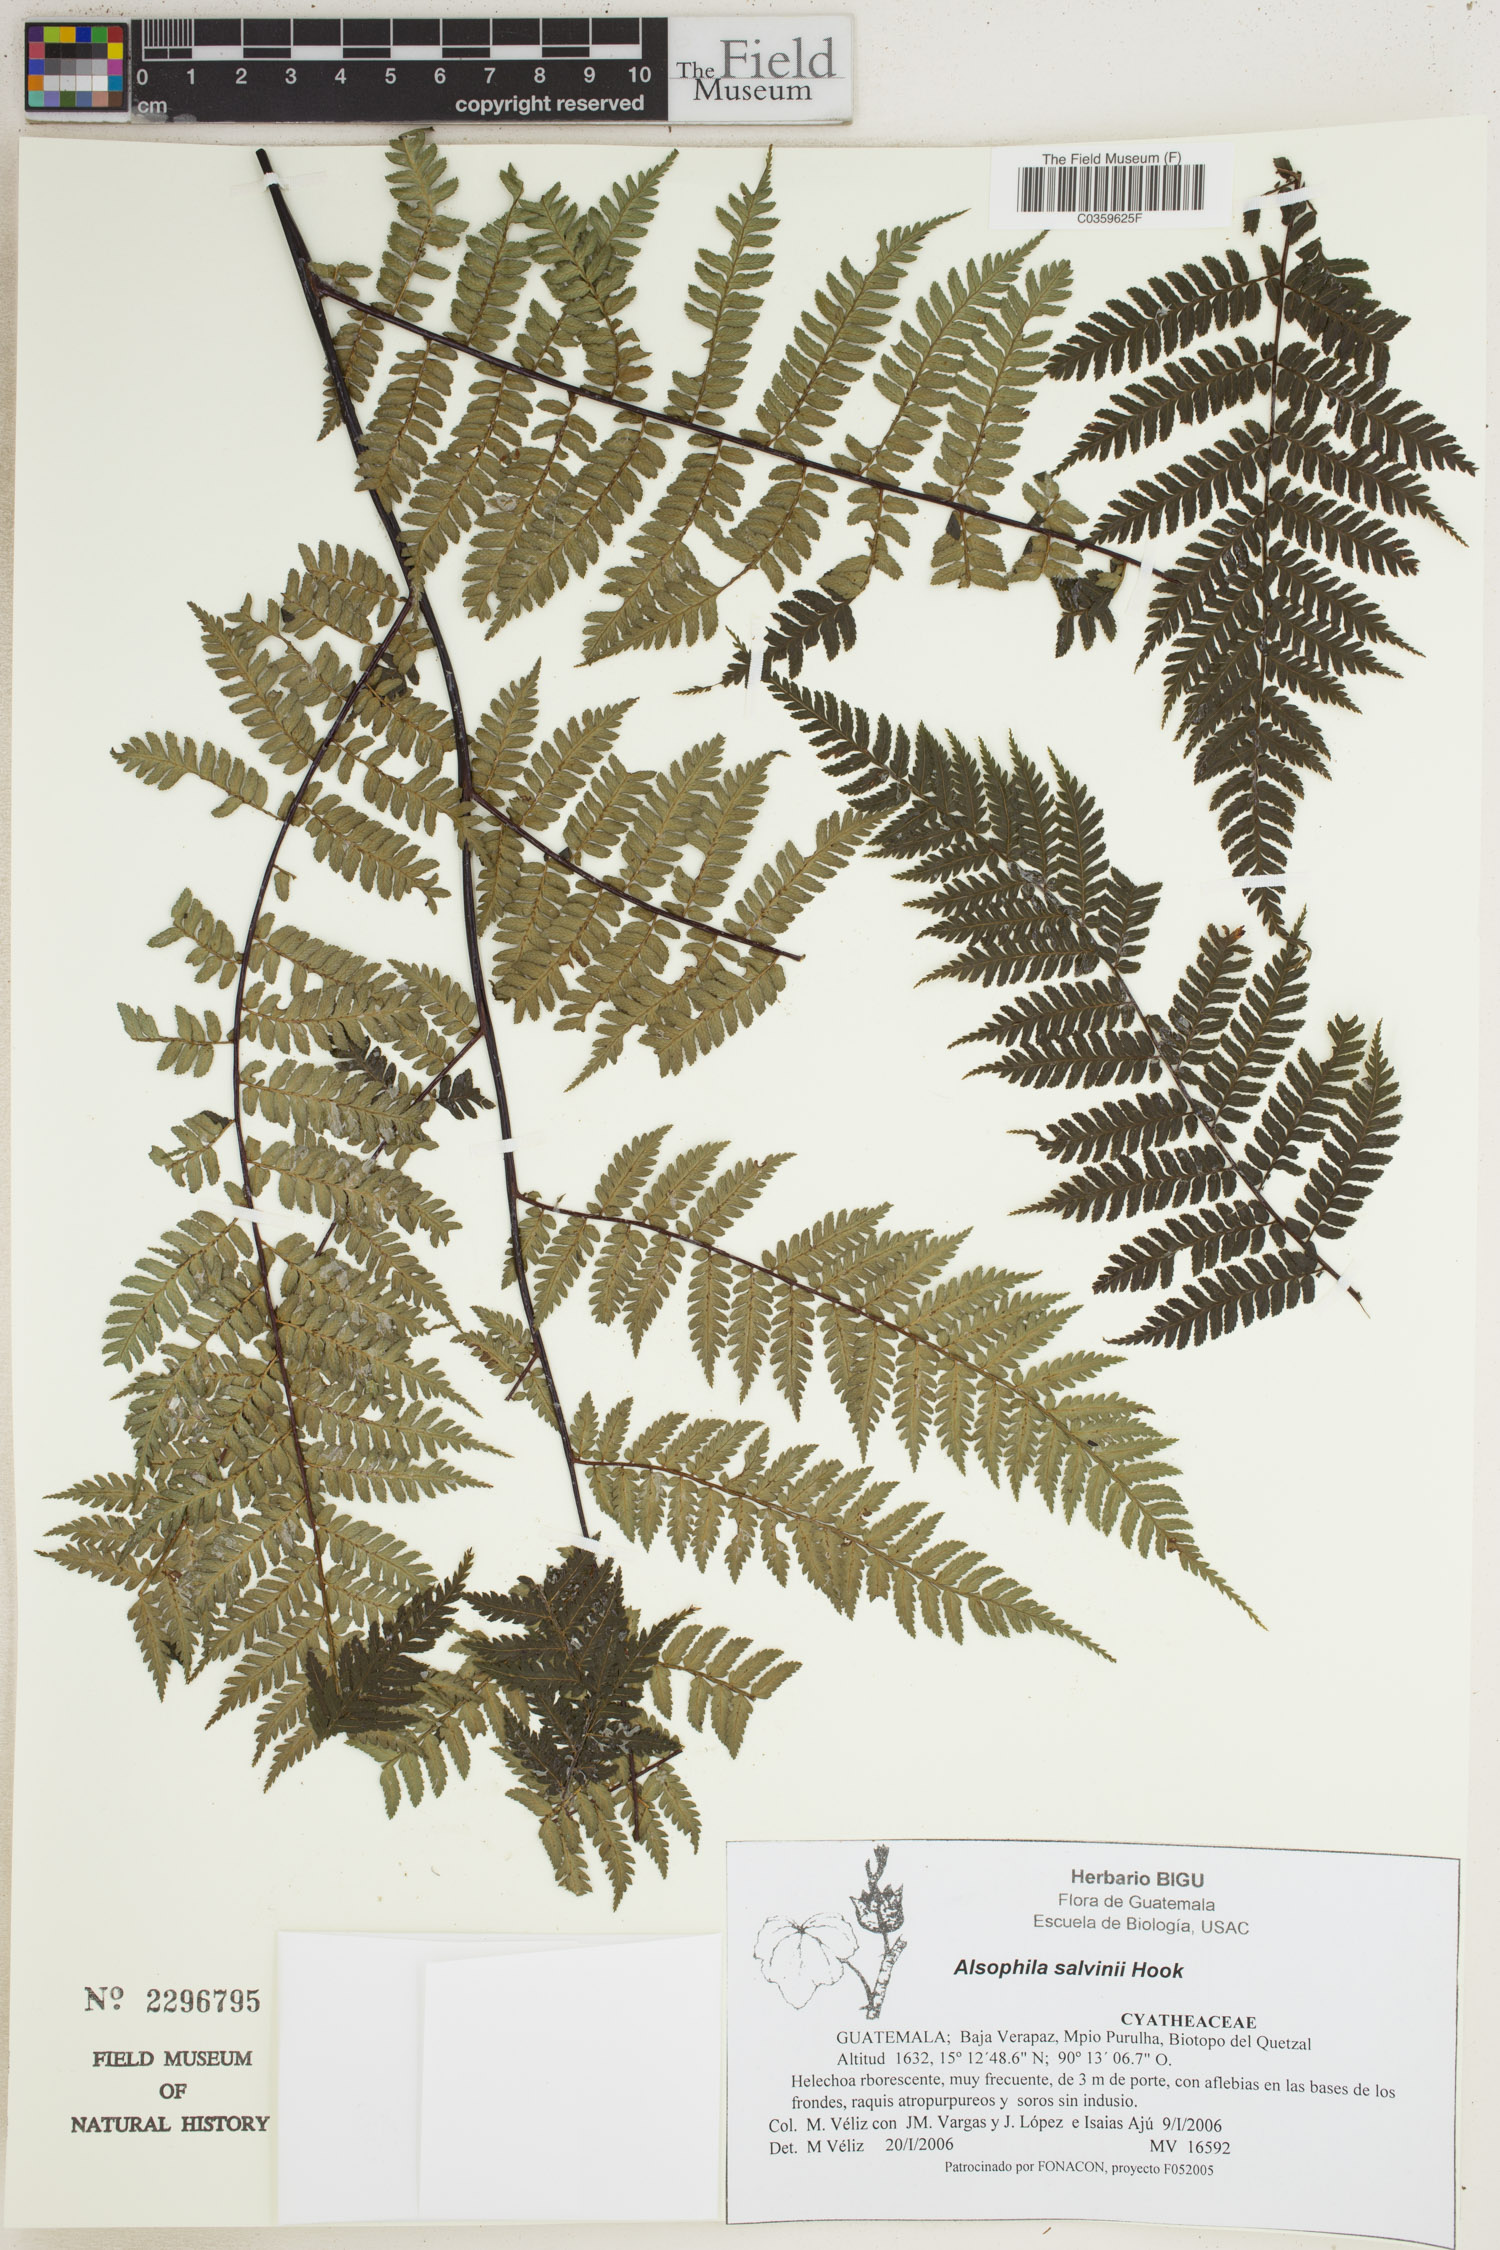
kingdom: Plantae
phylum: Tracheophyta
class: Polypodiopsida
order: Cyatheales
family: Cyatheaceae
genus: Gymnosphaera
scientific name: Gymnosphaera salvinii
